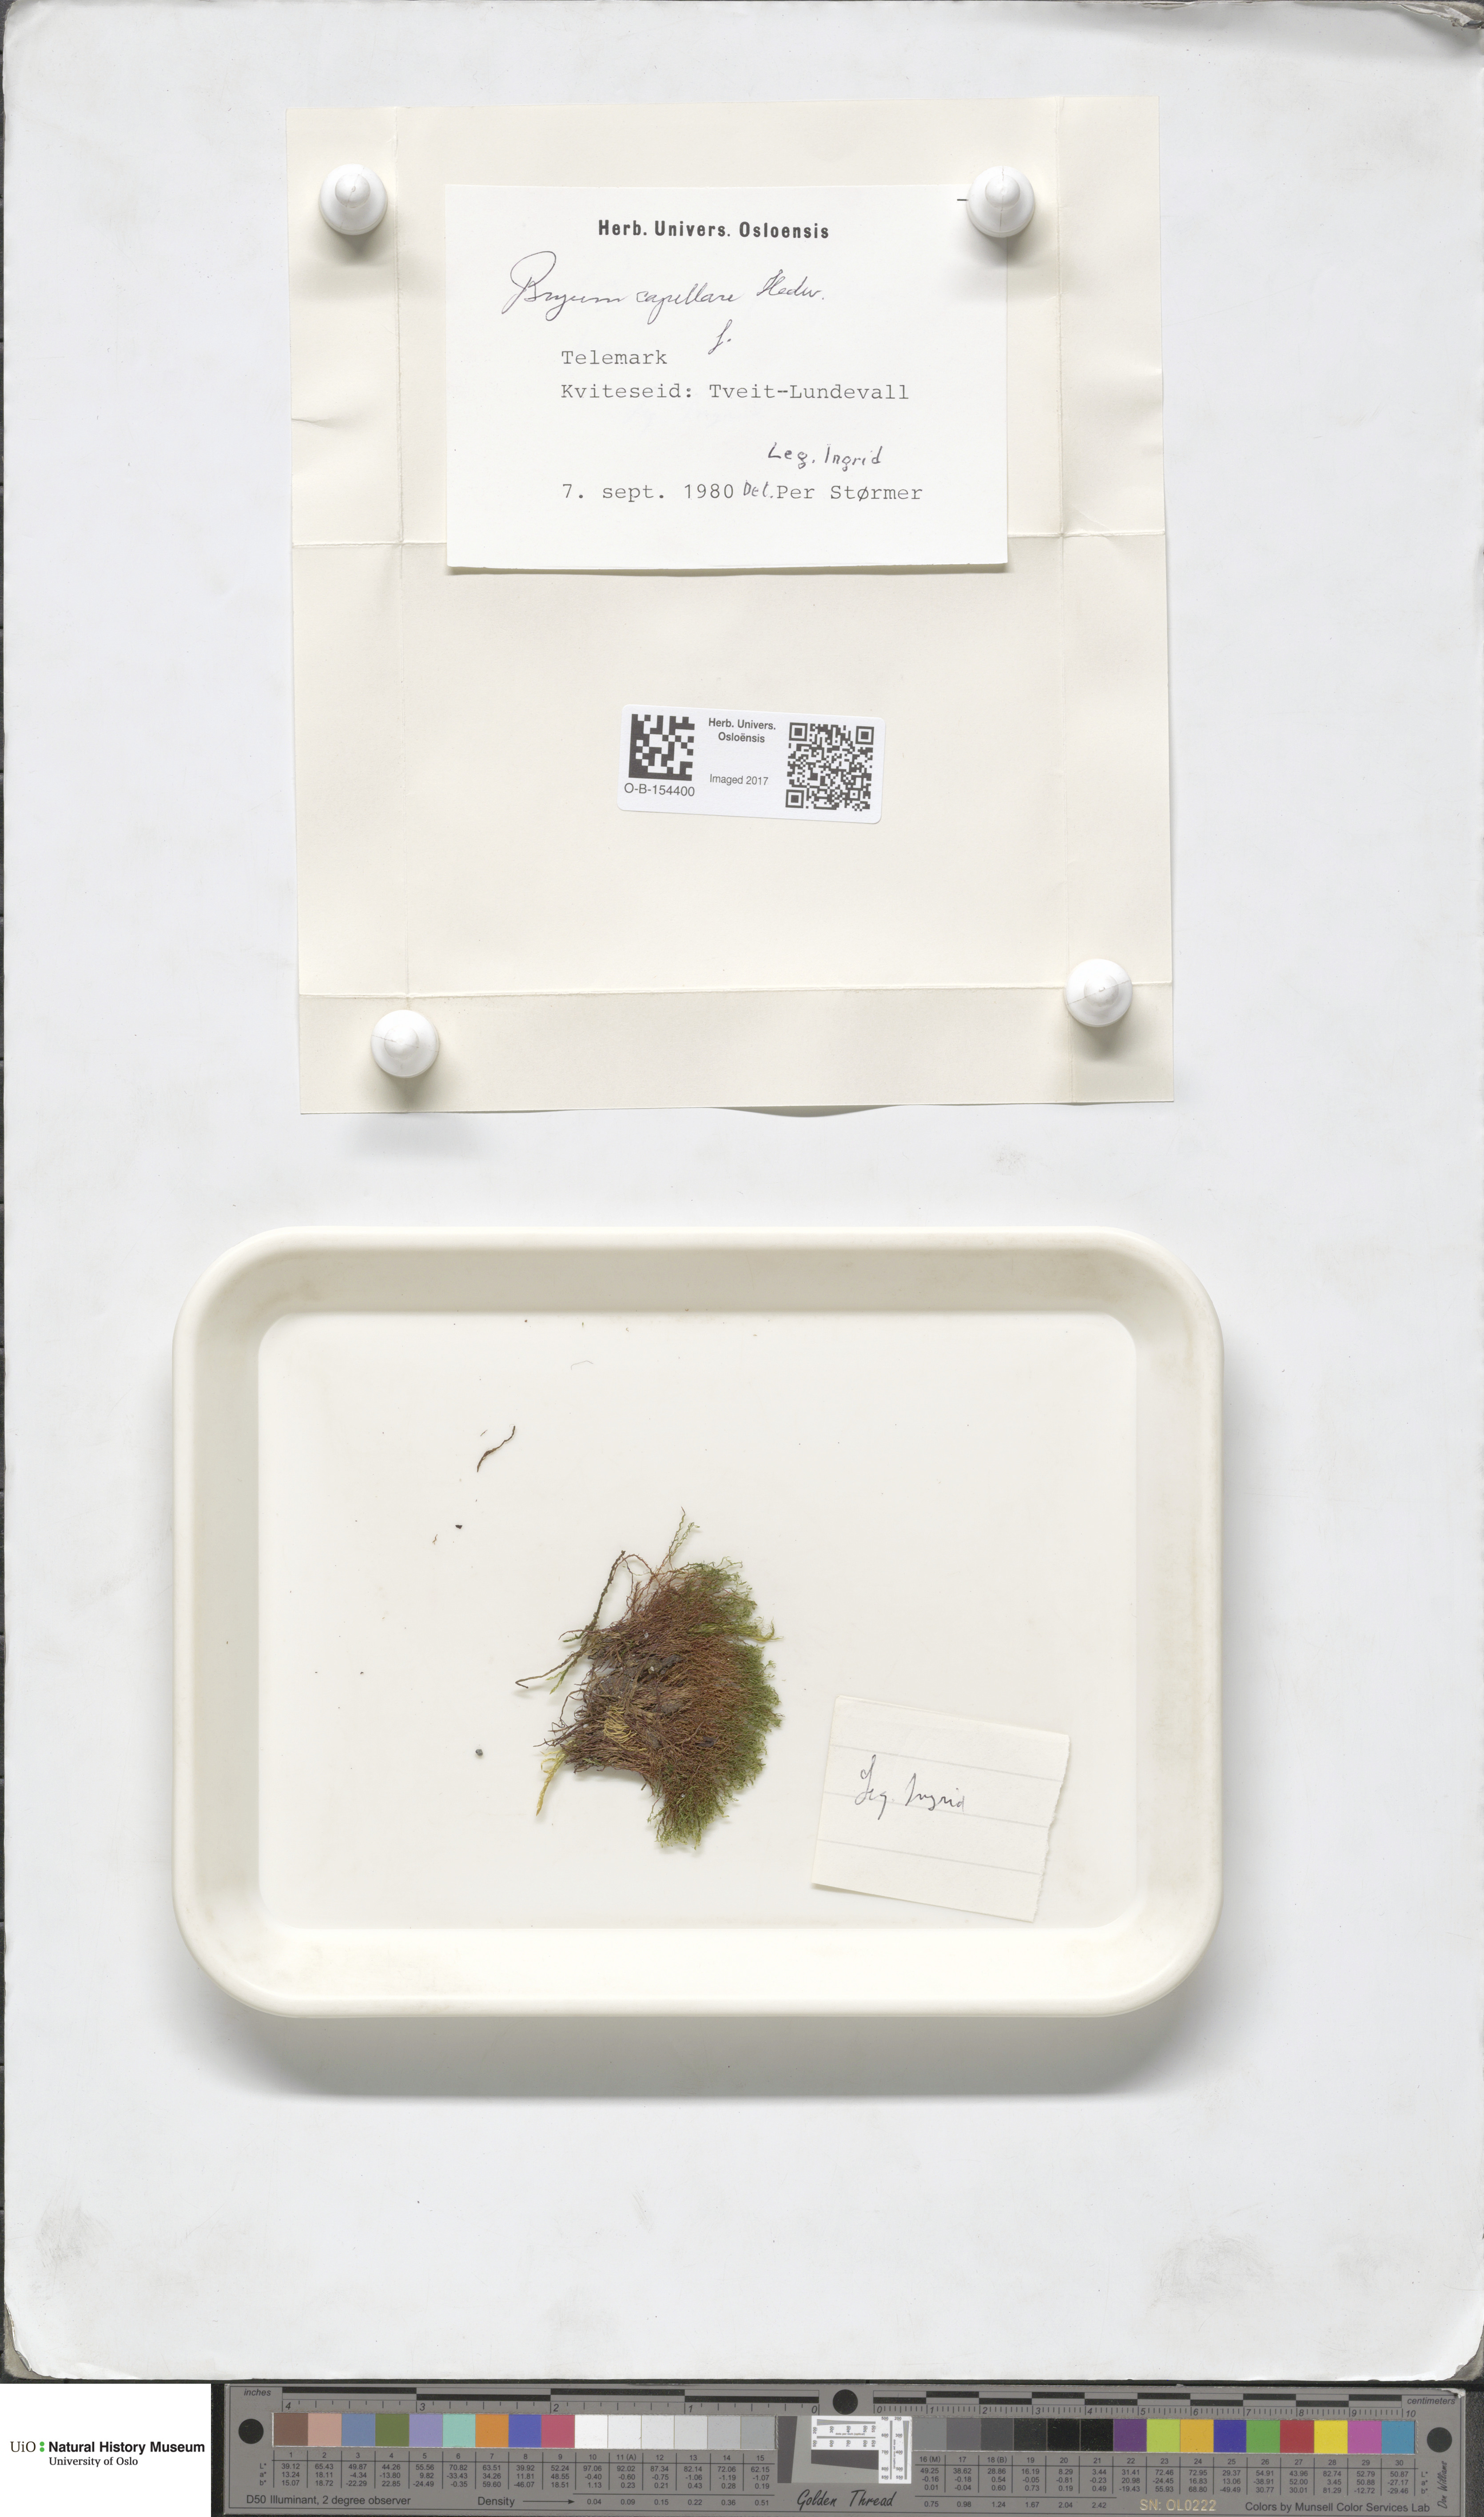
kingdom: Plantae
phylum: Bryophyta
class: Bryopsida
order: Bryales
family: Bryaceae
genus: Rosulabryum
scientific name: Rosulabryum capillare
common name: Capillary thread-moss
